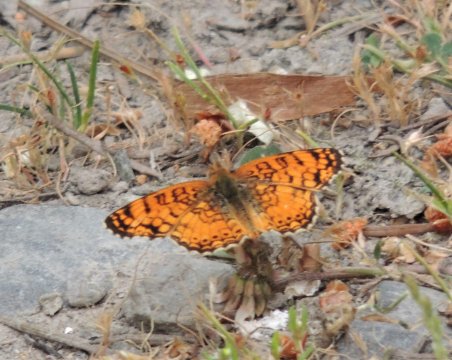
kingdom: Animalia
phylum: Arthropoda
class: Insecta
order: Lepidoptera
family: Nymphalidae
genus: Eresia
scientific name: Eresia aveyrona
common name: Mylitta Crescent
